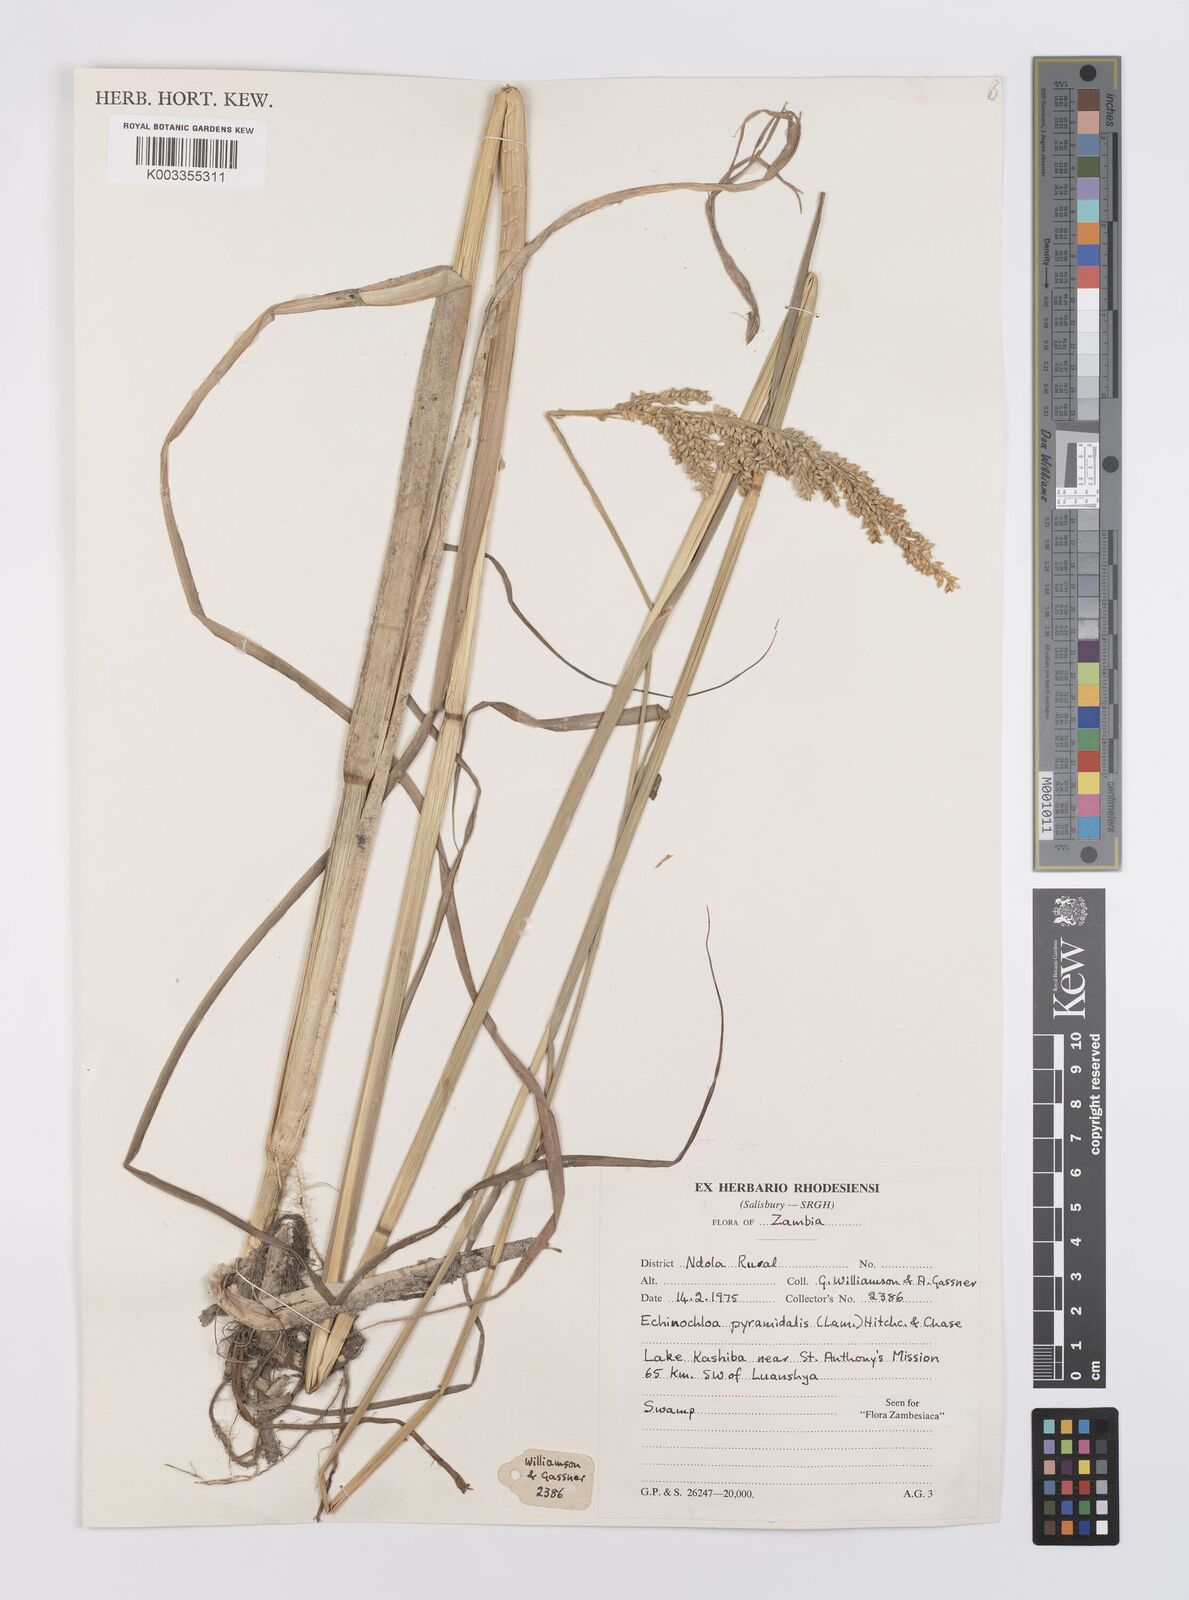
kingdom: Plantae
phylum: Tracheophyta
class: Liliopsida
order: Poales
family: Poaceae
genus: Echinochloa
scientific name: Echinochloa pyramidalis
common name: Antelope grass
